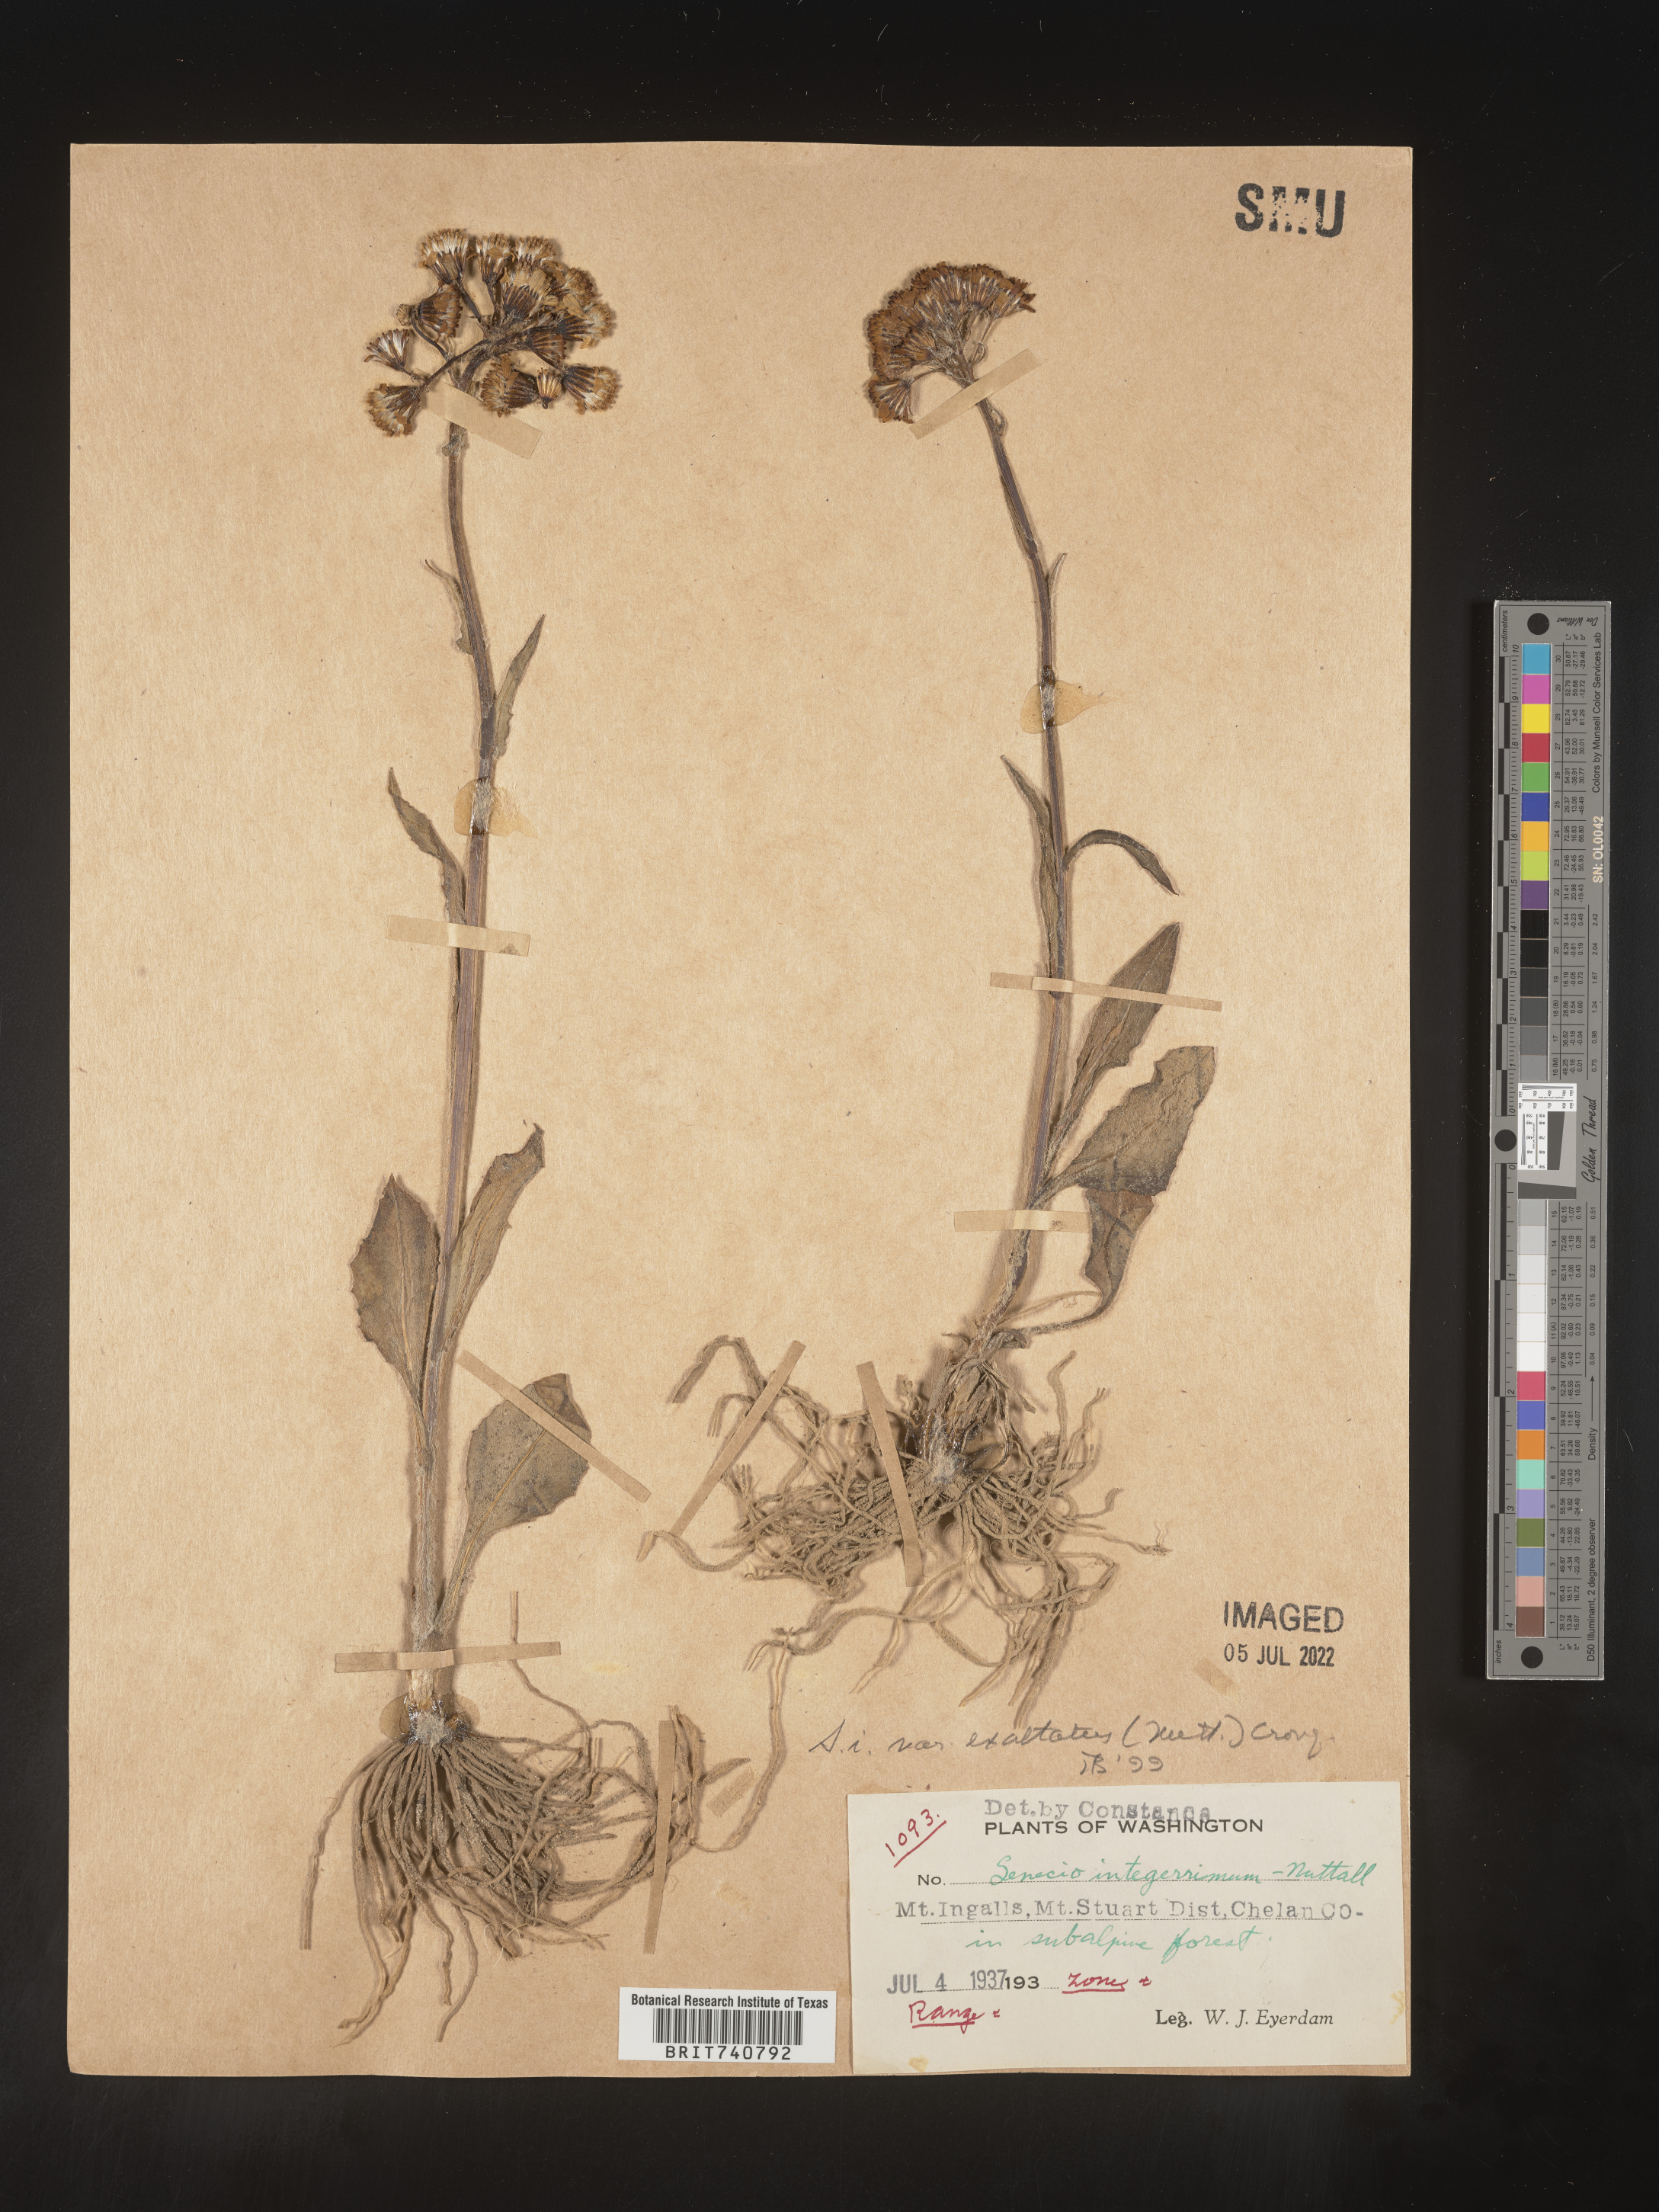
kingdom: Plantae
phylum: Tracheophyta
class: Magnoliopsida
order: Asterales
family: Asteraceae
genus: Senecio
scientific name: Senecio integerrimus
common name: Gaugeplant
